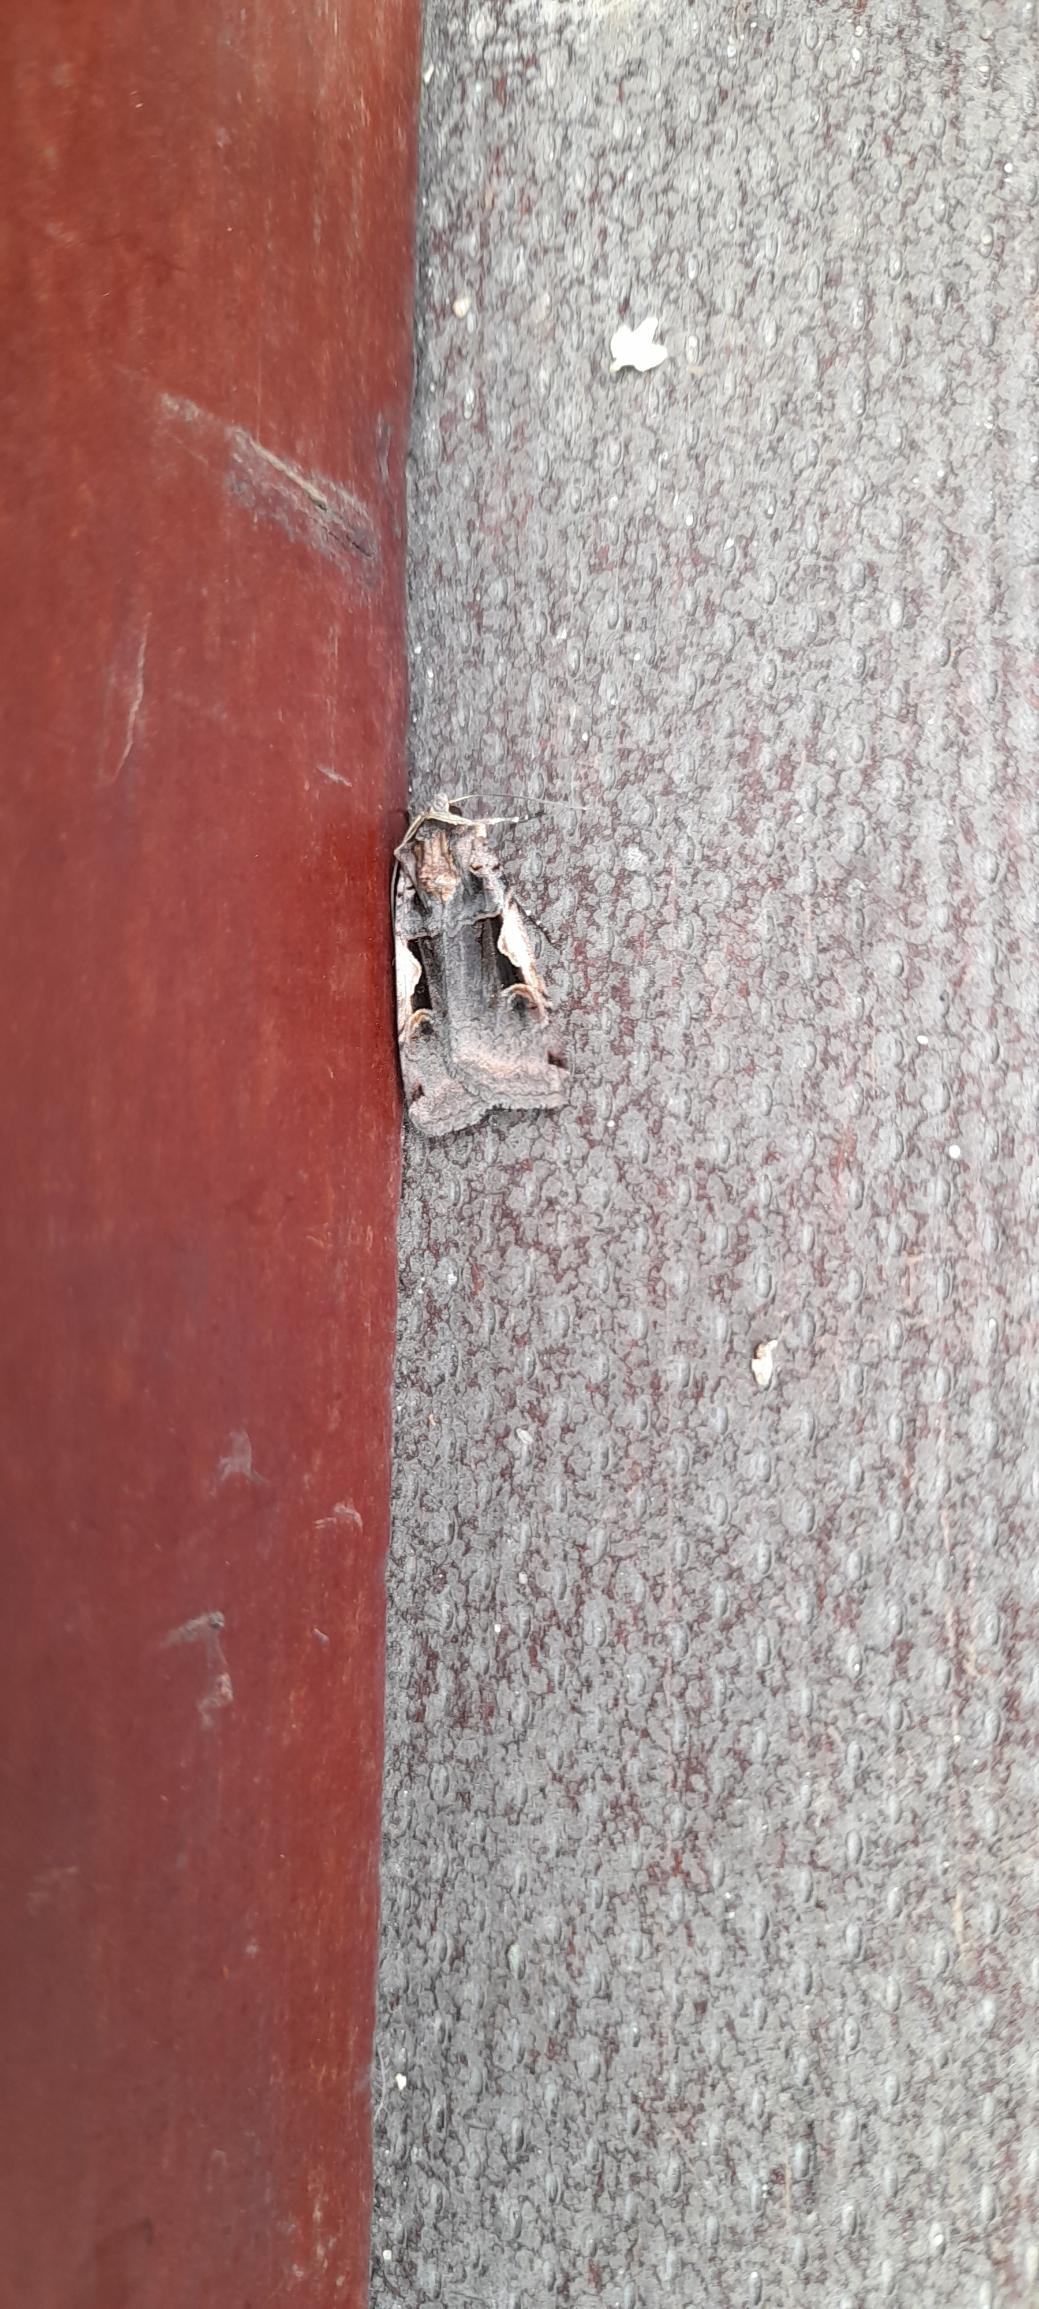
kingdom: Animalia
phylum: Arthropoda
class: Insecta
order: Lepidoptera
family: Noctuidae
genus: Xestia
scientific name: Xestia c-nigrum
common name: Det sorte c
